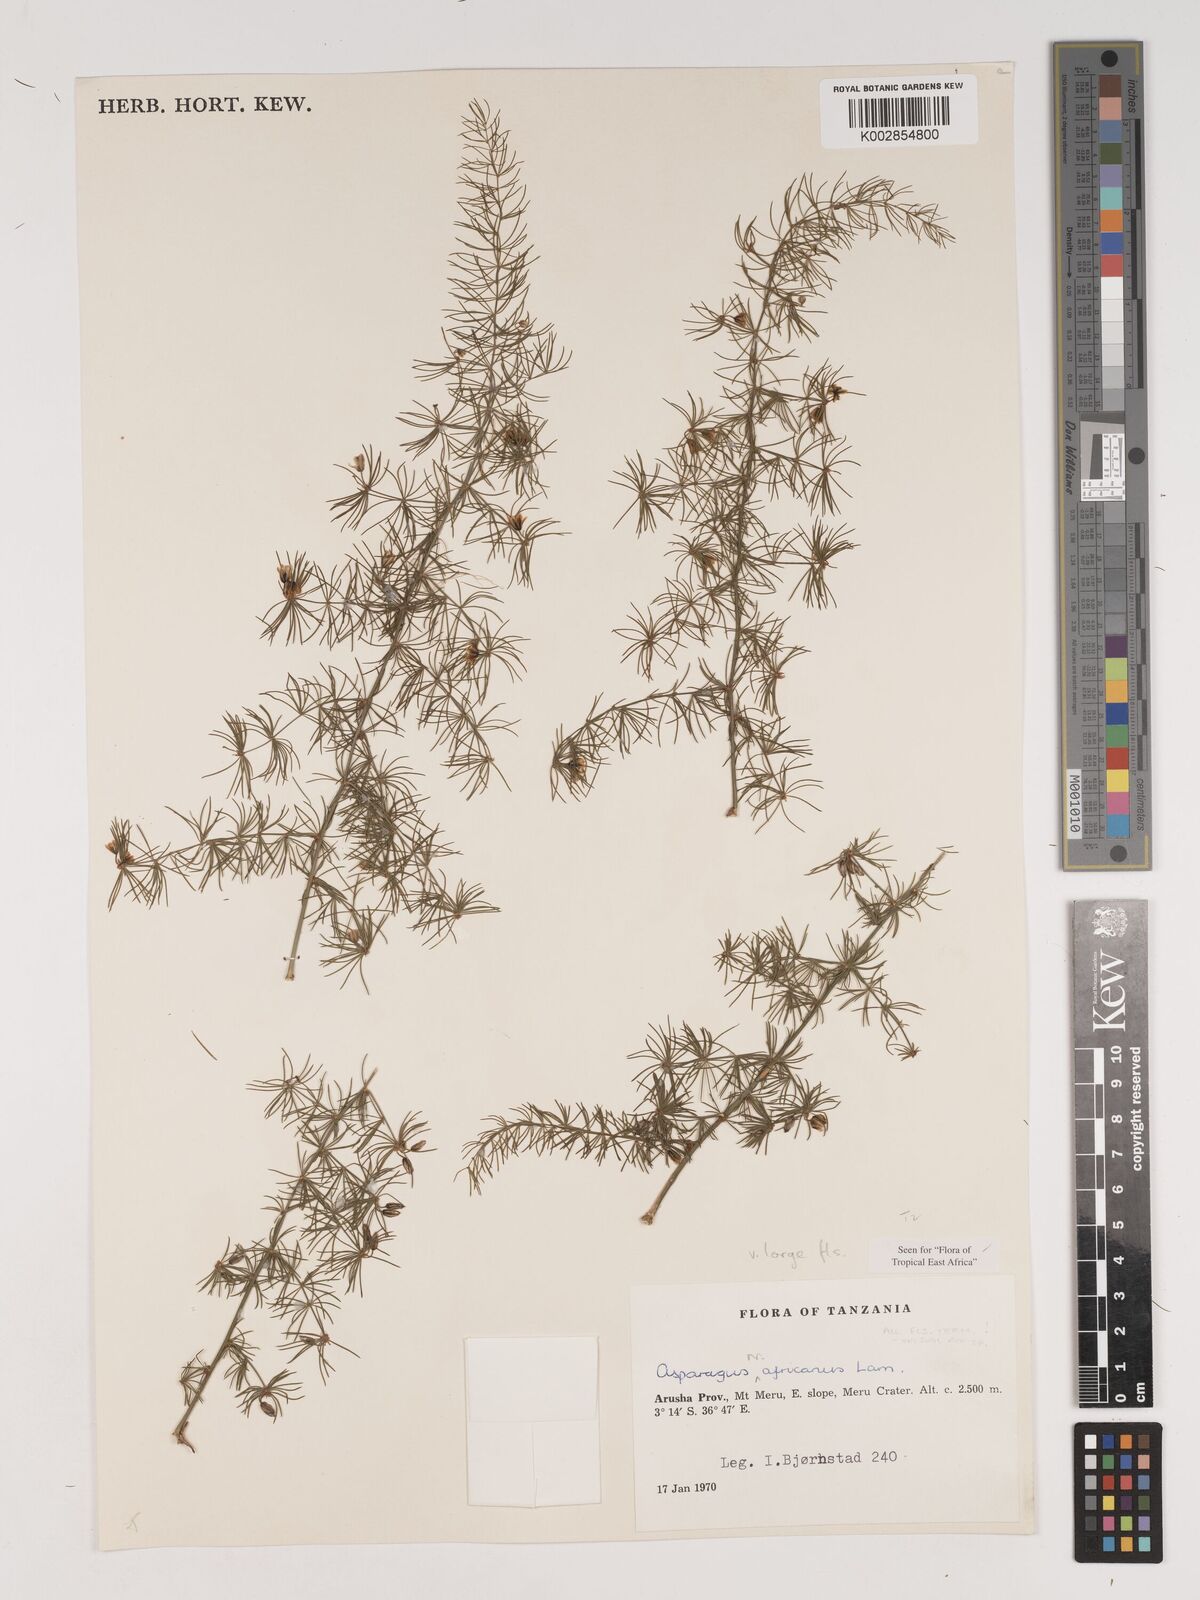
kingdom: Plantae
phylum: Tracheophyta
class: Liliopsida
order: Asparagales
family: Asparagaceae
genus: Asparagus
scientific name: Asparagus africanus
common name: Asparagus-fern
